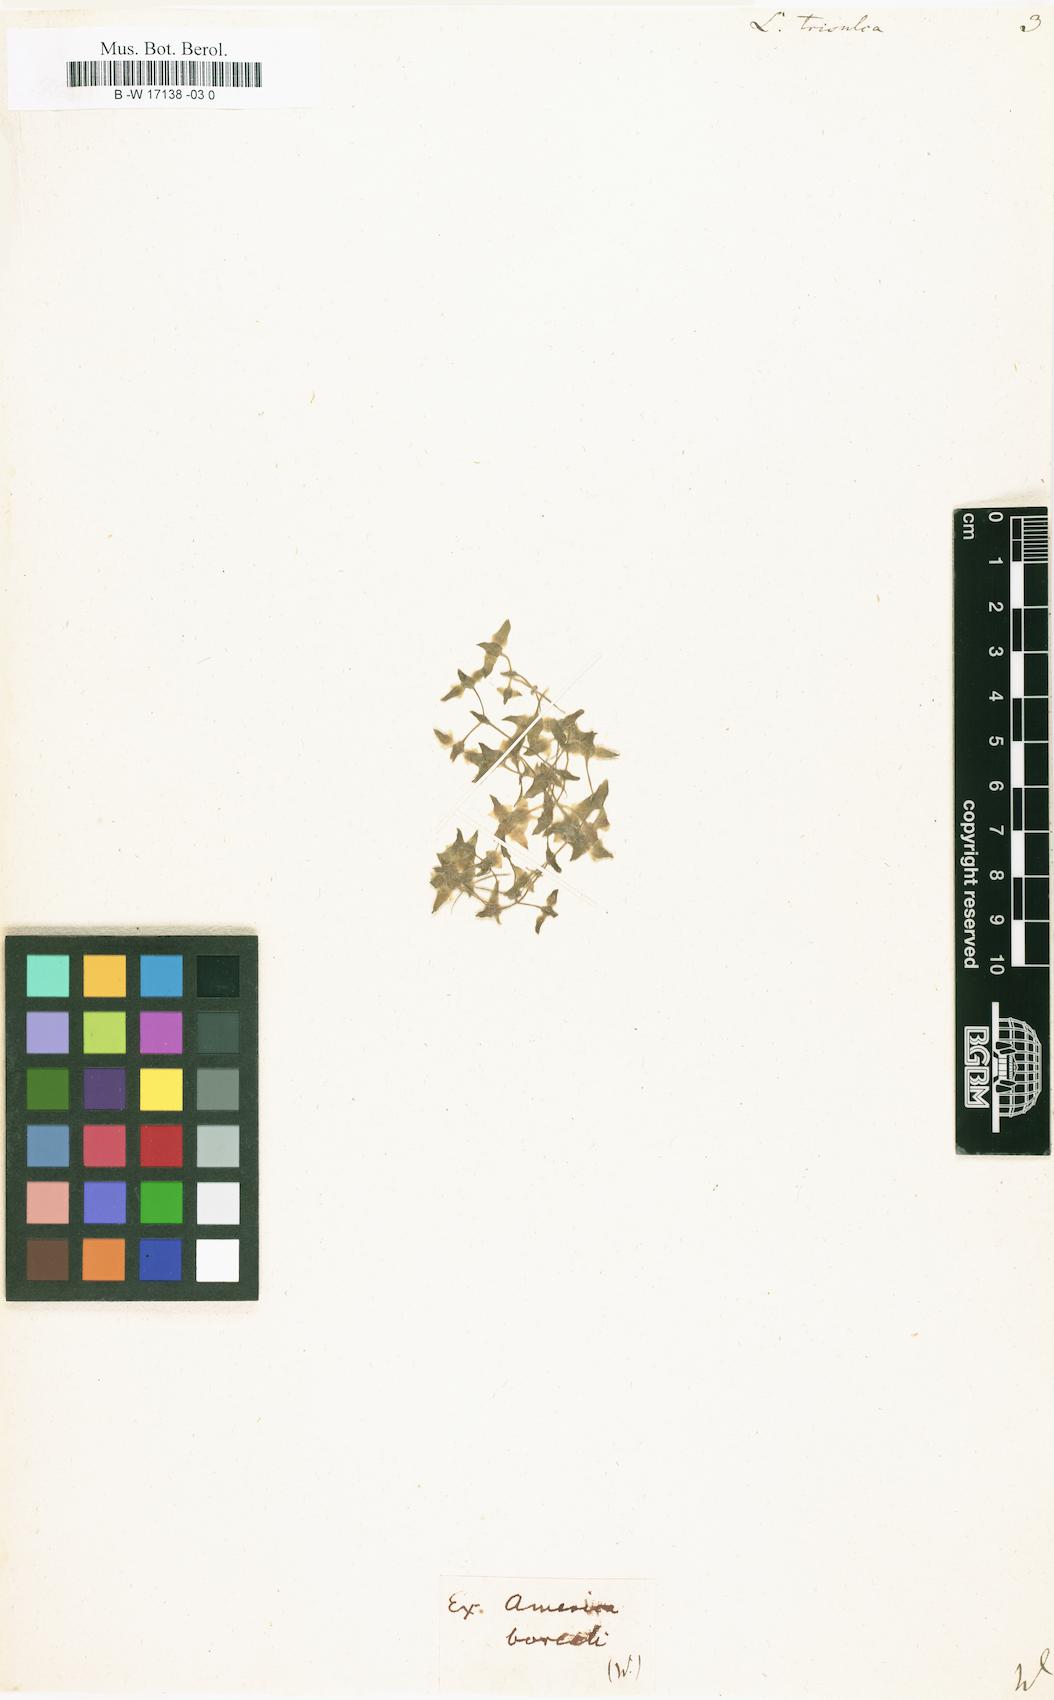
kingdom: Plantae
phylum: Tracheophyta
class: Liliopsida
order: Alismatales
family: Araceae
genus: Lemna
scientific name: Lemna trisulca
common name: Ivy-leaved duckweed
